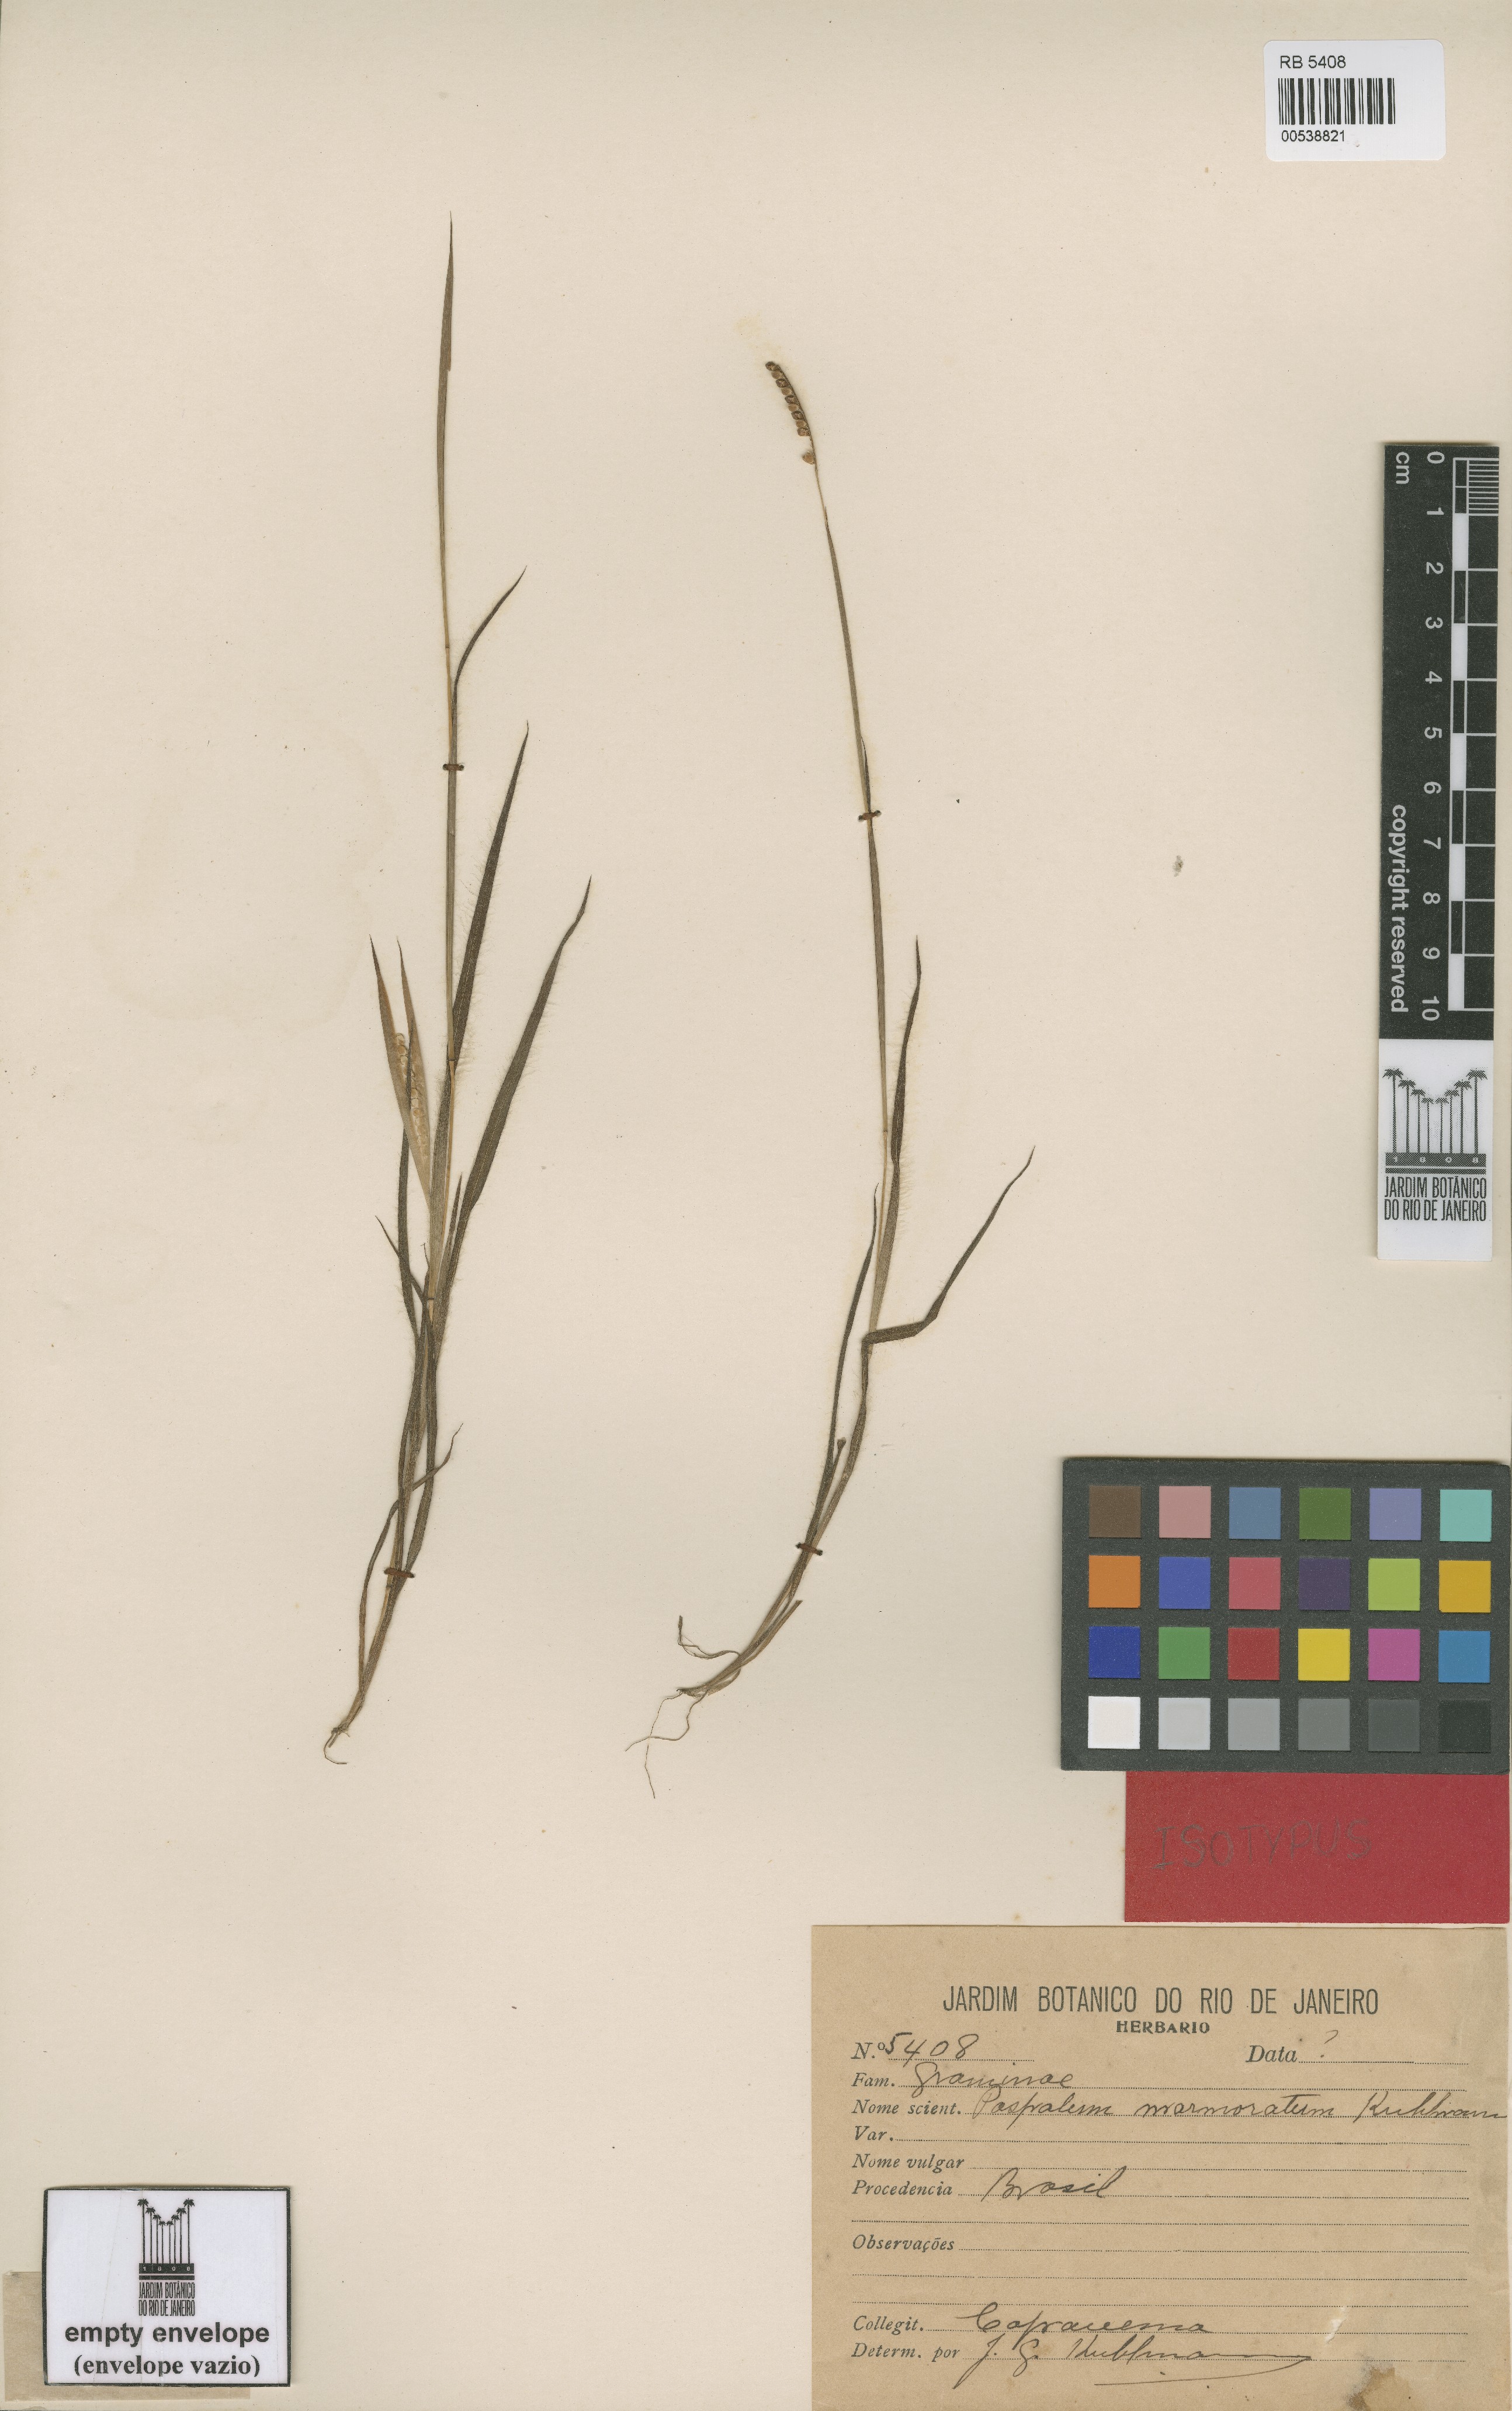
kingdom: Plantae
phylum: Tracheophyta
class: Liliopsida
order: Poales
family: Poaceae
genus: Paspalum
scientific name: Paspalum marmoratum
